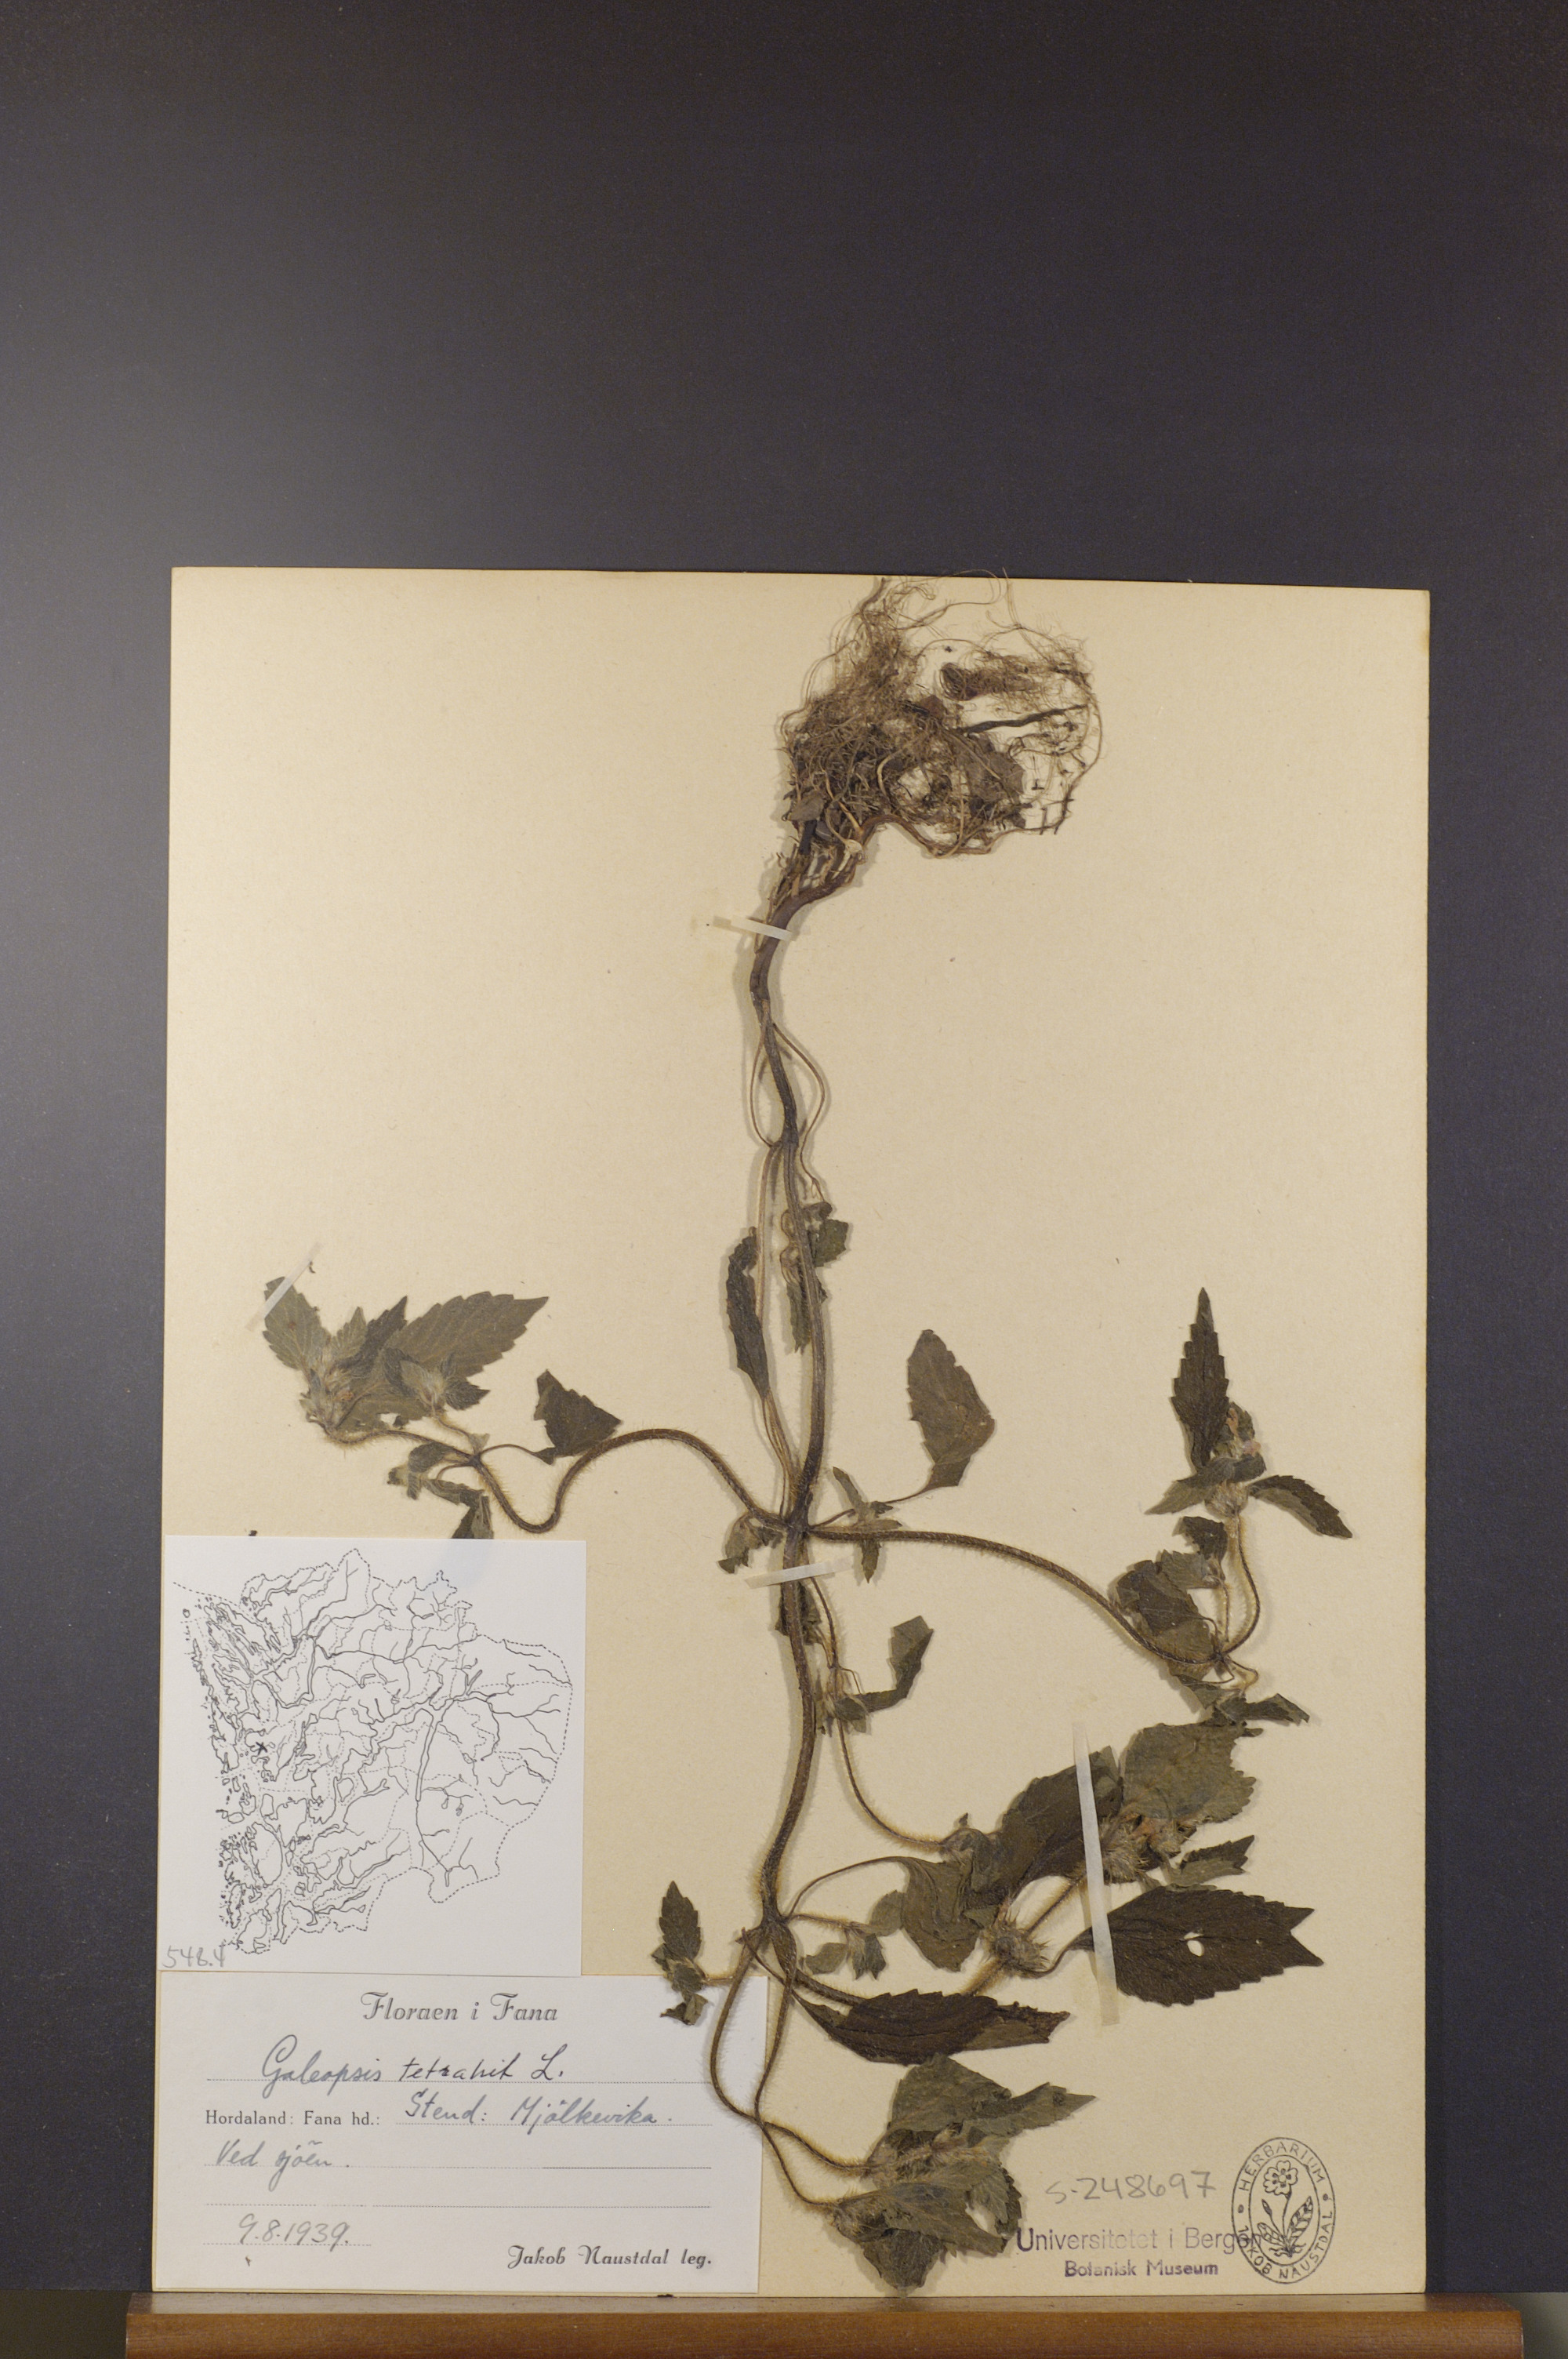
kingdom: Plantae
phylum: Tracheophyta
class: Magnoliopsida
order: Lamiales
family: Lamiaceae
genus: Galeopsis
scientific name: Galeopsis tetrahit
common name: Common hemp-nettle
